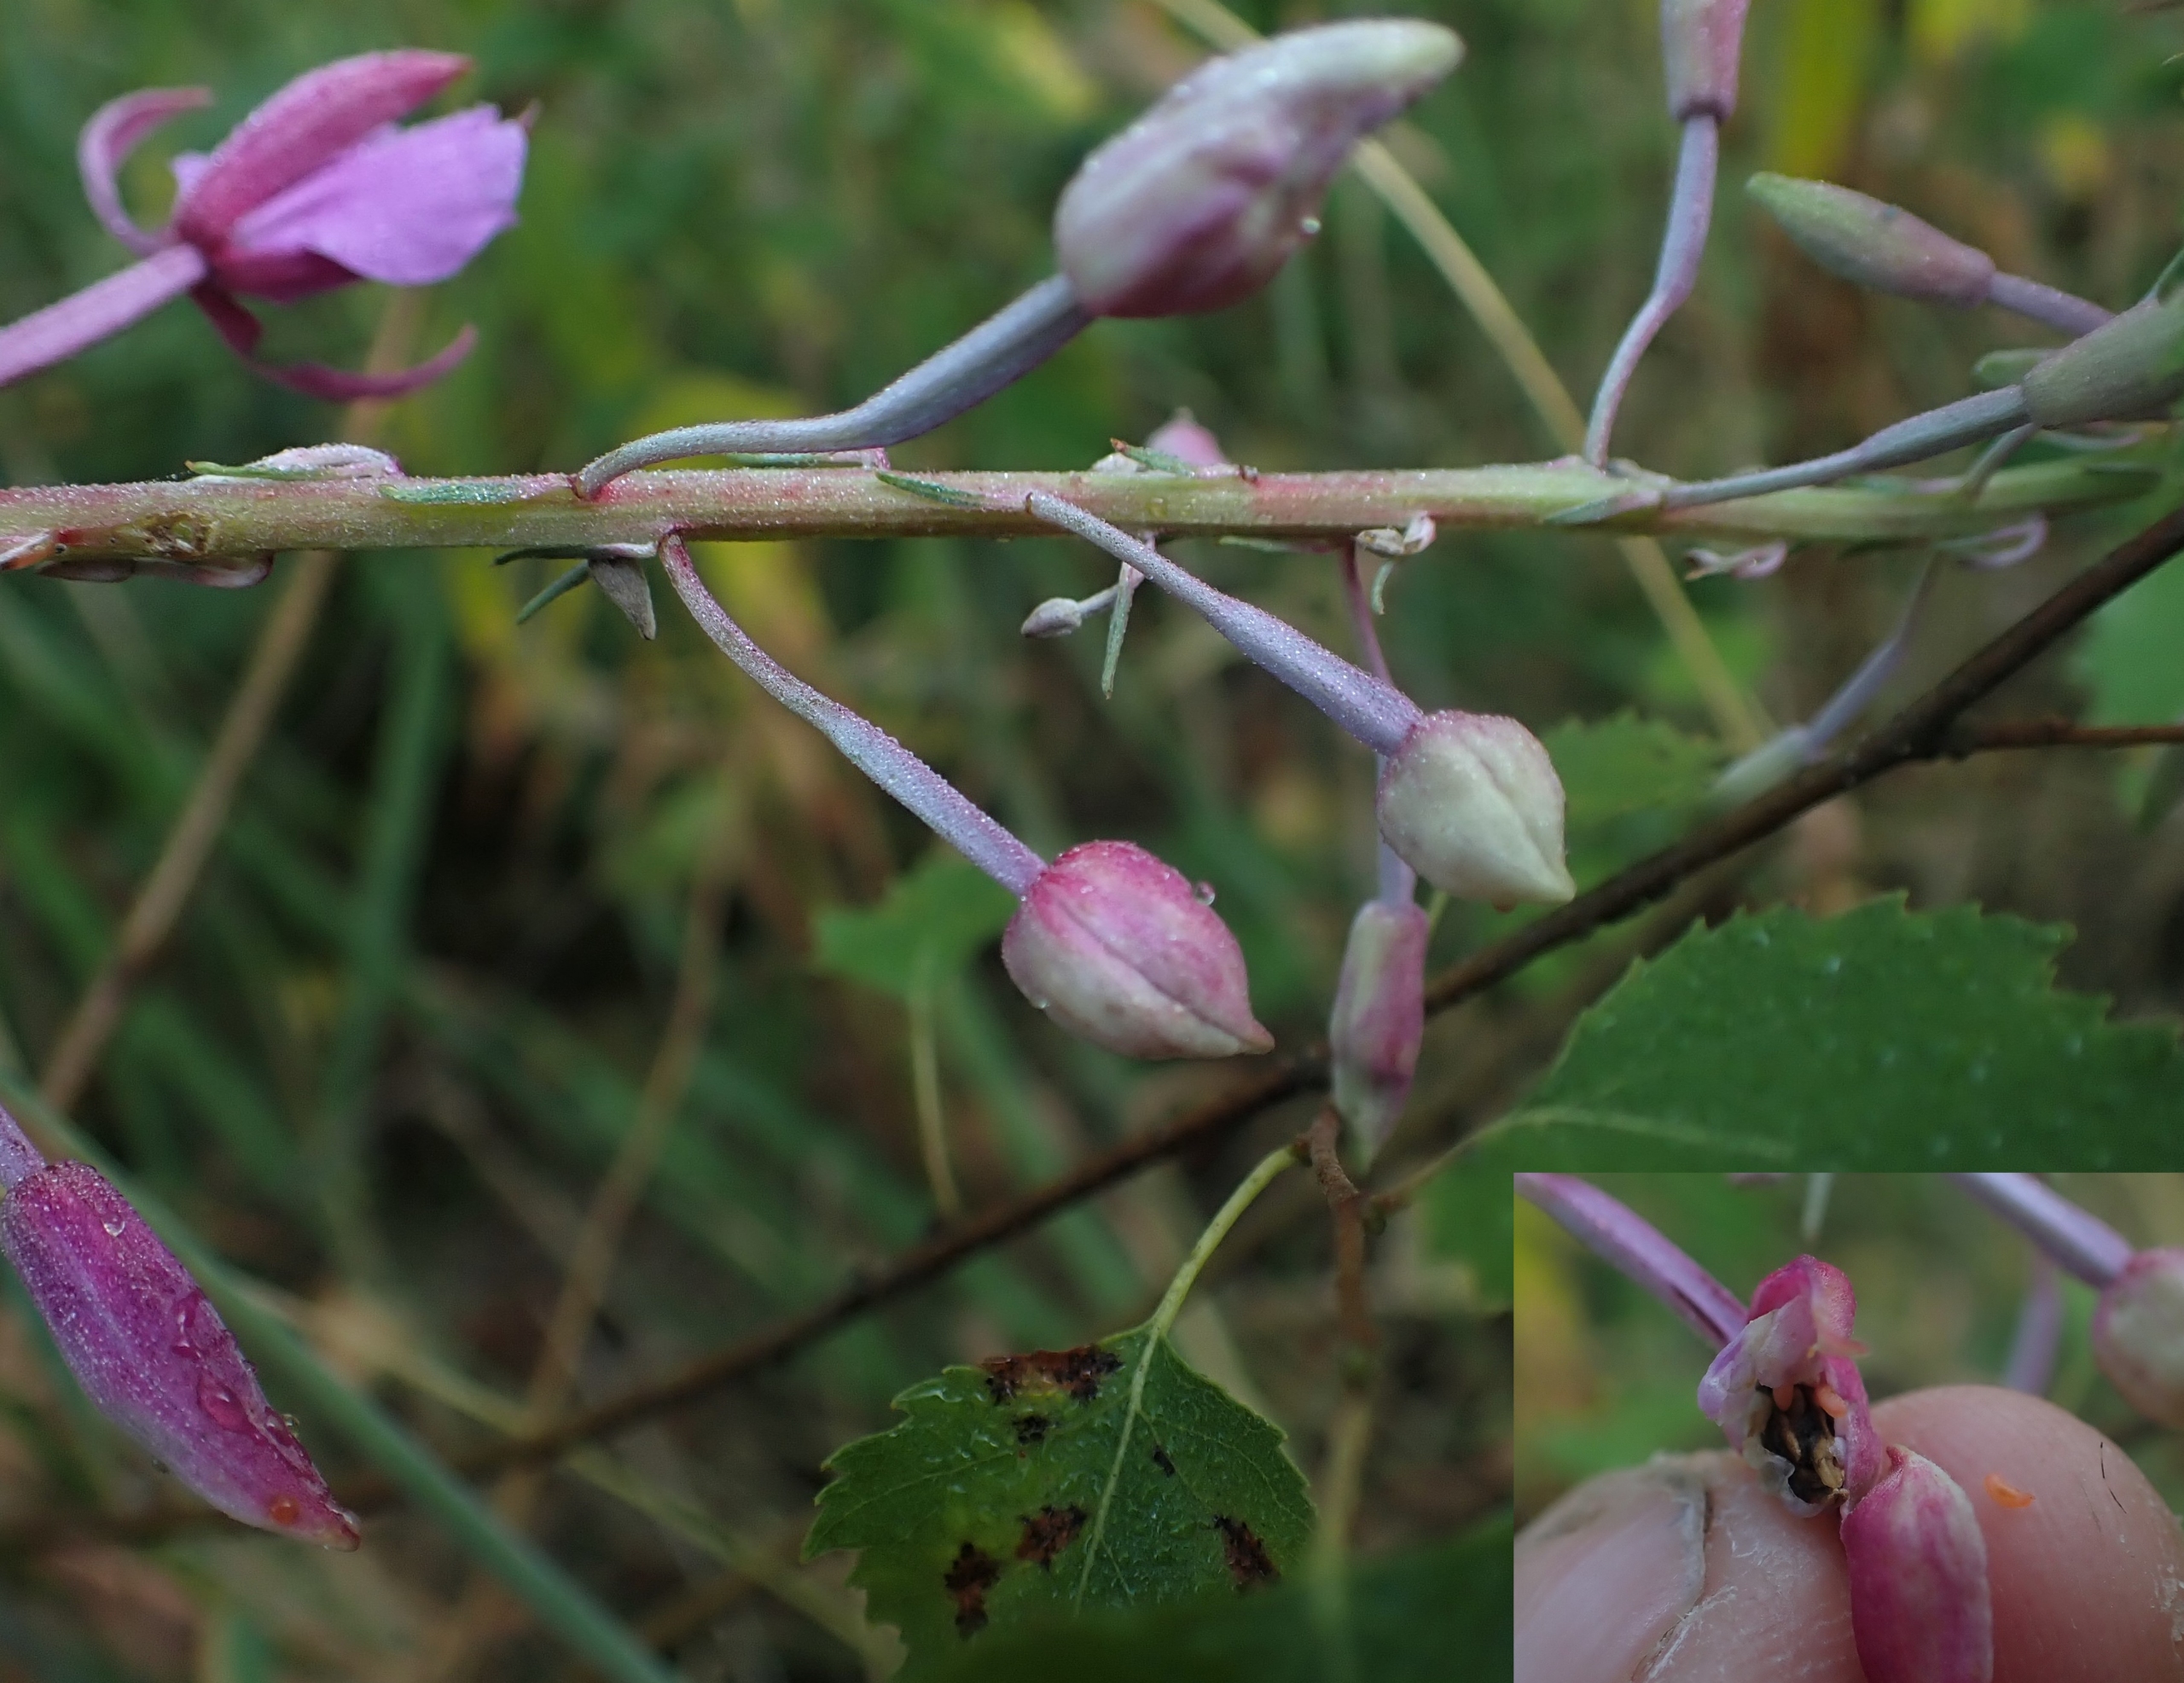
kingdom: Animalia
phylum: Arthropoda
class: Insecta
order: Diptera
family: Cecidomyiidae
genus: Dasineura
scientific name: Dasineura epilobii
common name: Gederamsblomstgalmyg
